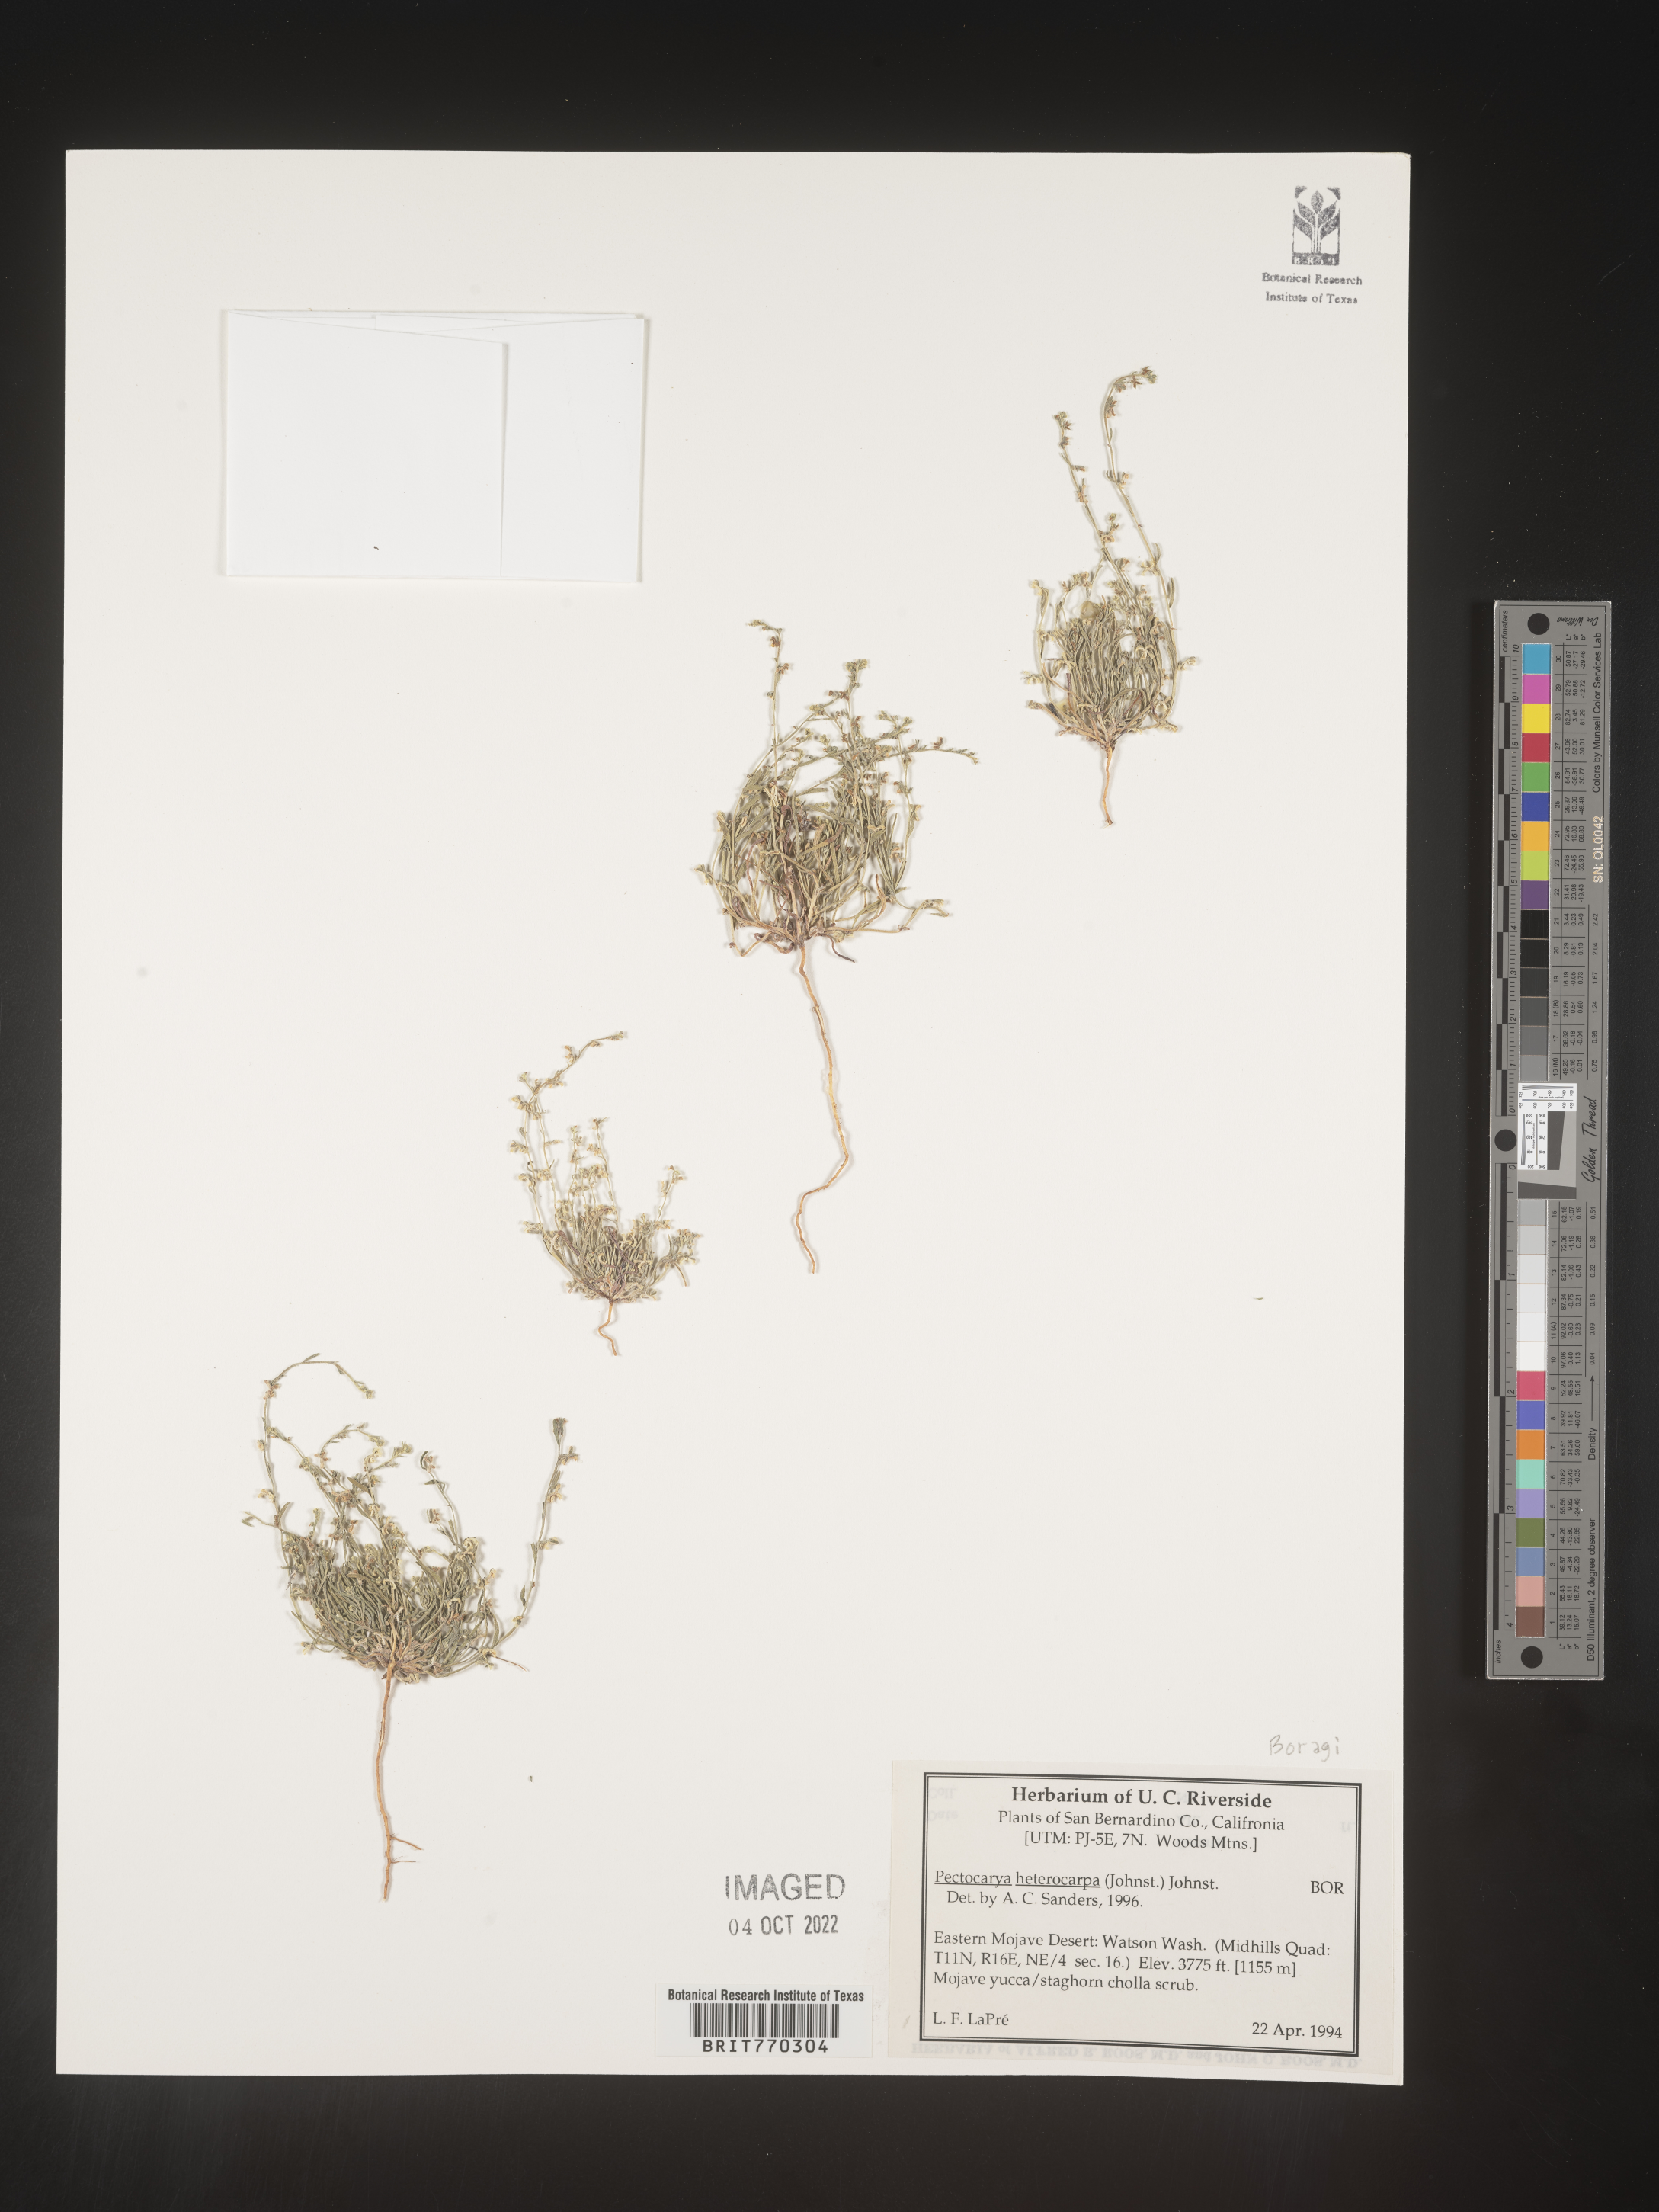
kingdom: Plantae
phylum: Tracheophyta
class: Magnoliopsida
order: Boraginales
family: Boraginaceae
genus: Pectocarya
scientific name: Pectocarya
